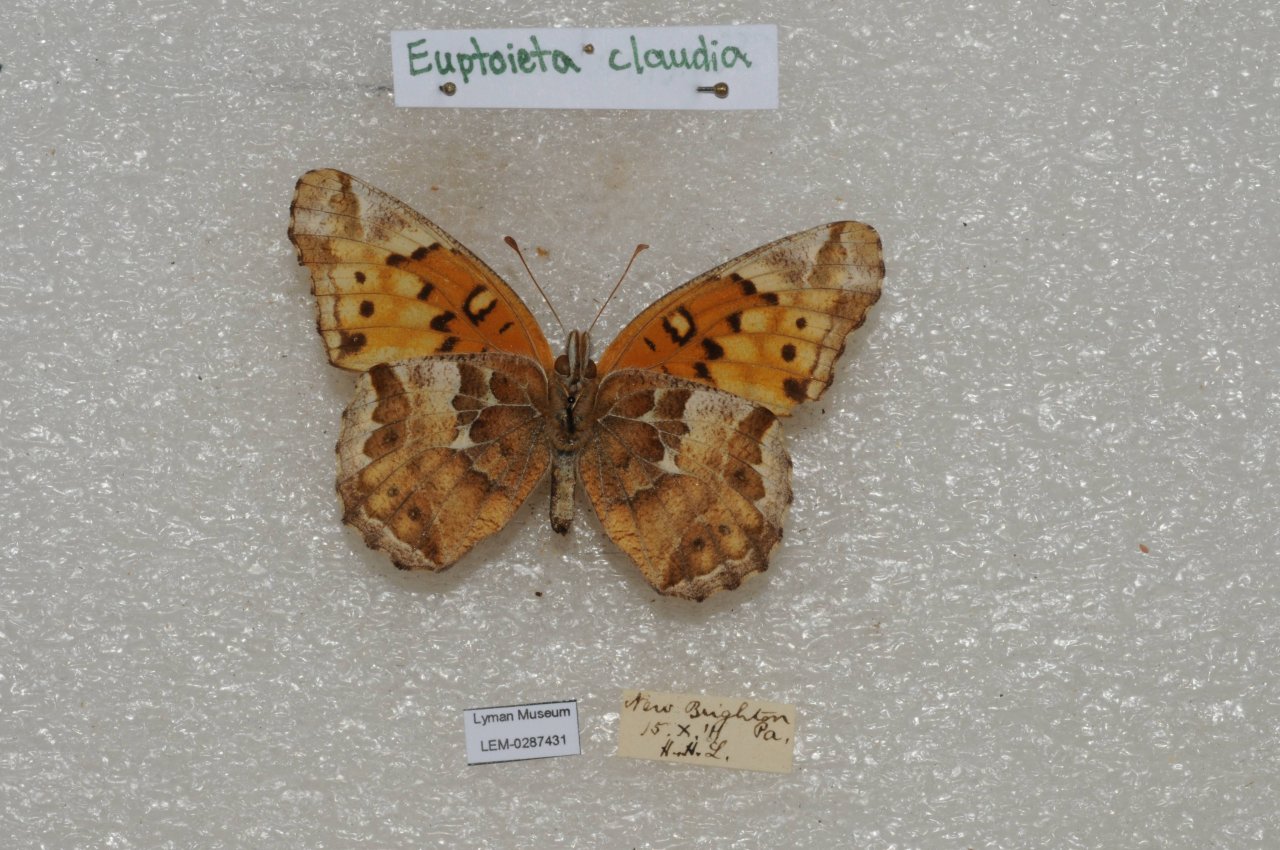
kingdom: Animalia
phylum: Arthropoda
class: Insecta
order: Lepidoptera
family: Nymphalidae
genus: Euptoieta
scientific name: Euptoieta claudia
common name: Variegated Fritillary
